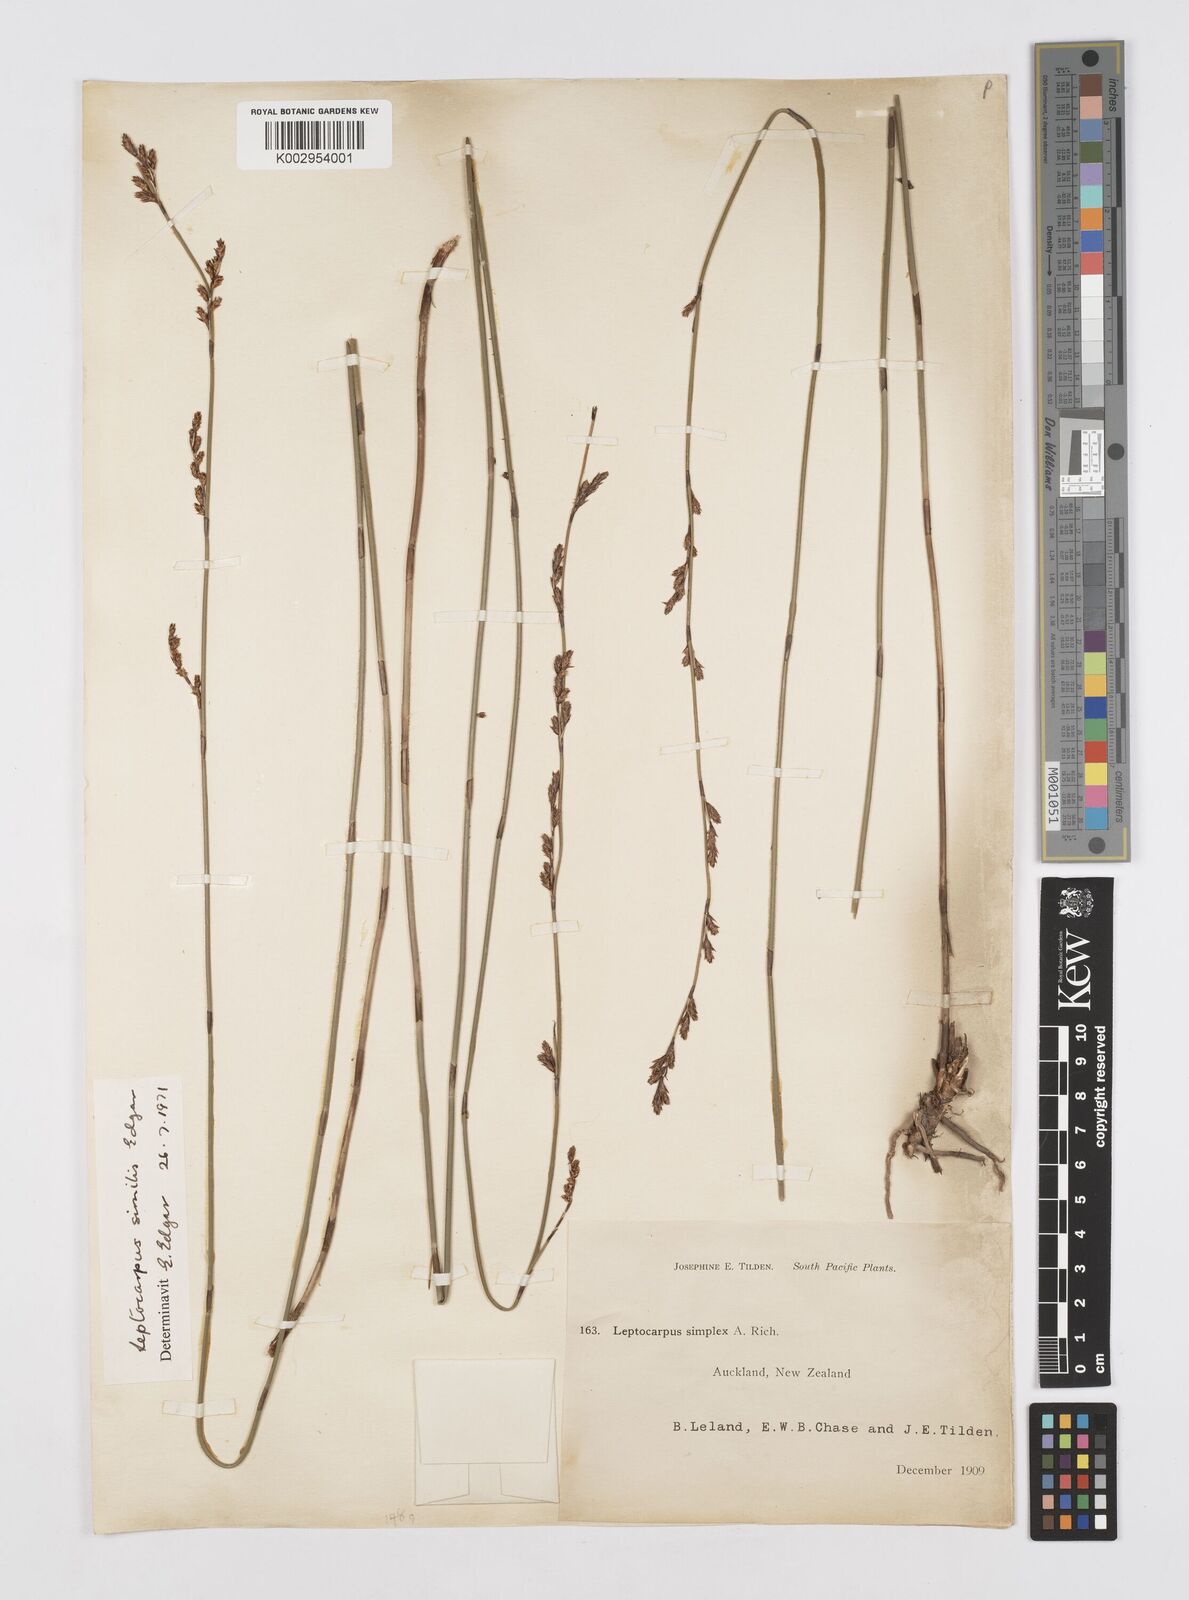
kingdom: Plantae
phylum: Tracheophyta
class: Liliopsida
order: Poales
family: Restionaceae
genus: Apodasmia
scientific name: Apodasmia similis
